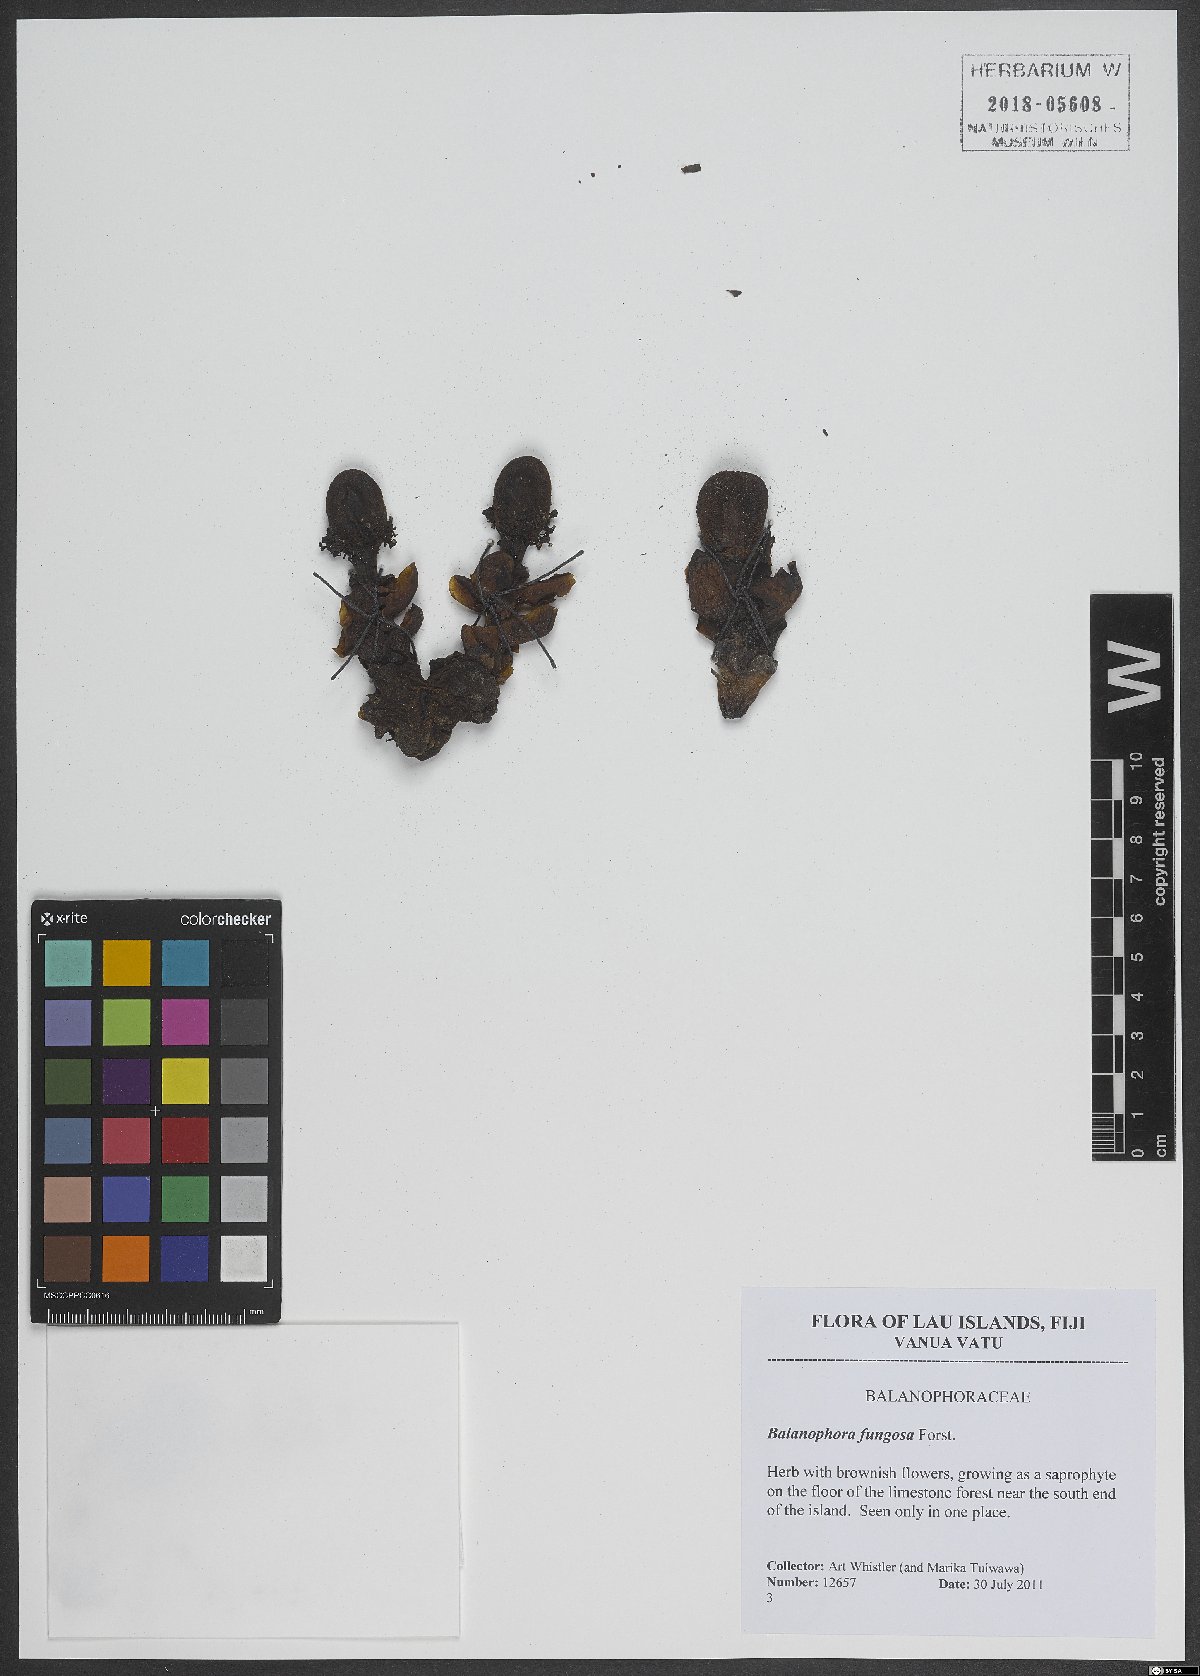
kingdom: Plantae
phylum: Tracheophyta
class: Magnoliopsida
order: Santalales
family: Balanophoraceae
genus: Balanophora
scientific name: Balanophora fungosa
